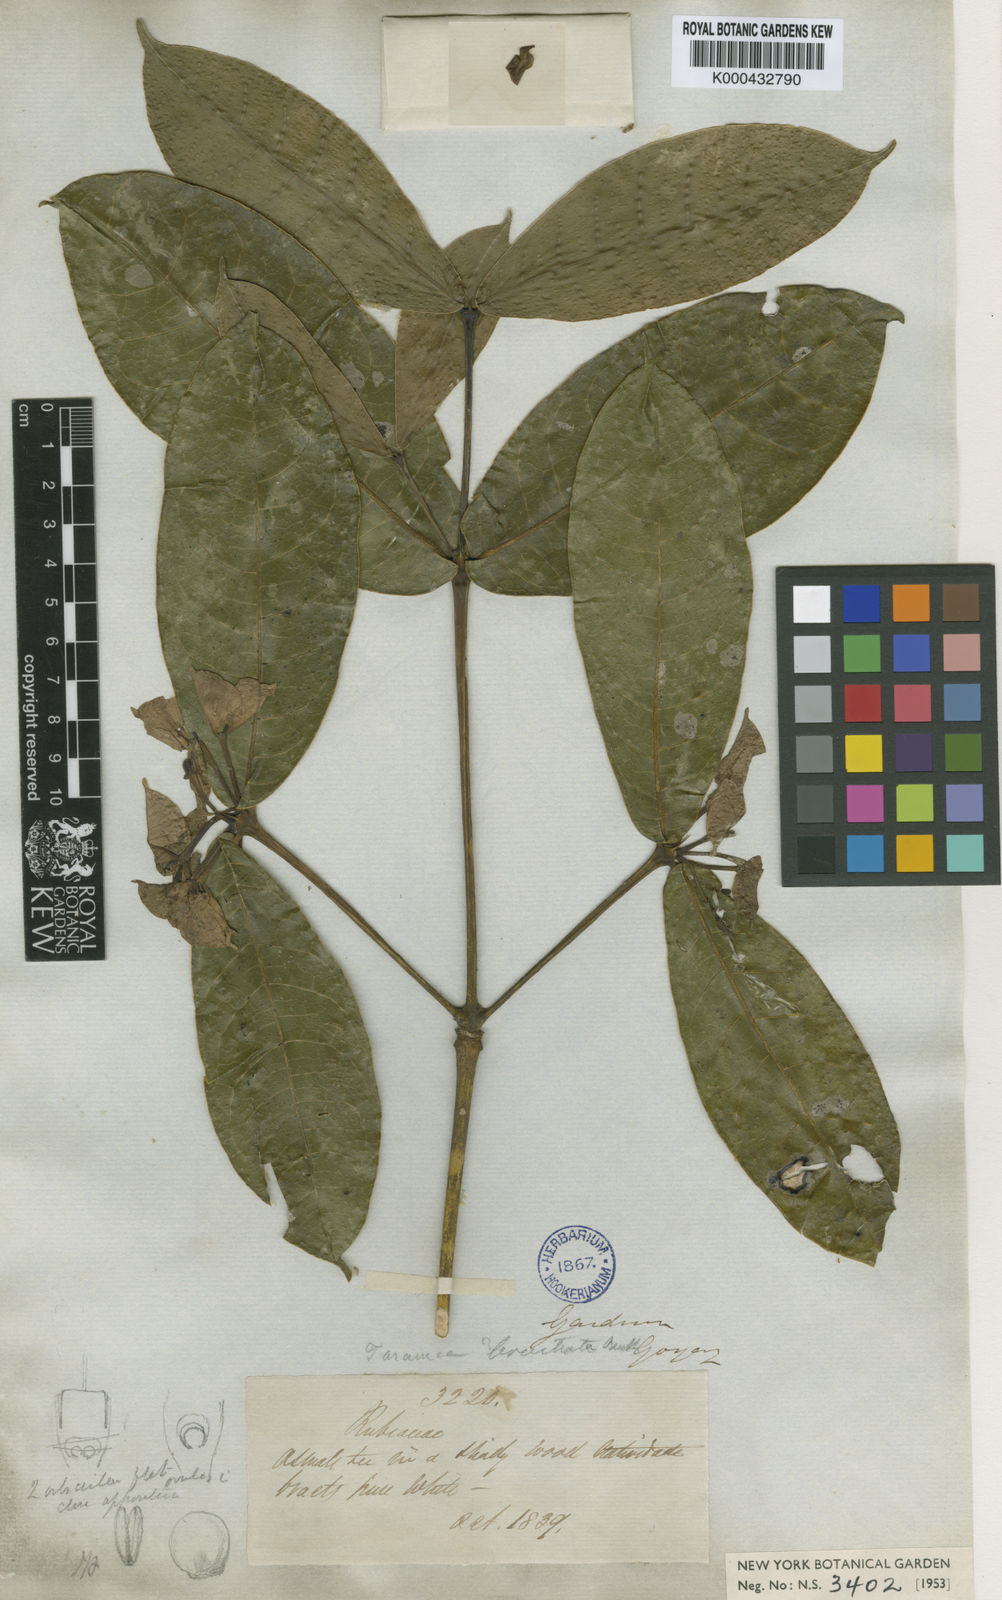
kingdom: Plantae
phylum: Tracheophyta
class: Magnoliopsida
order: Gentianales
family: Rubiaceae
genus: Faramea
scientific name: Faramea bracteata
